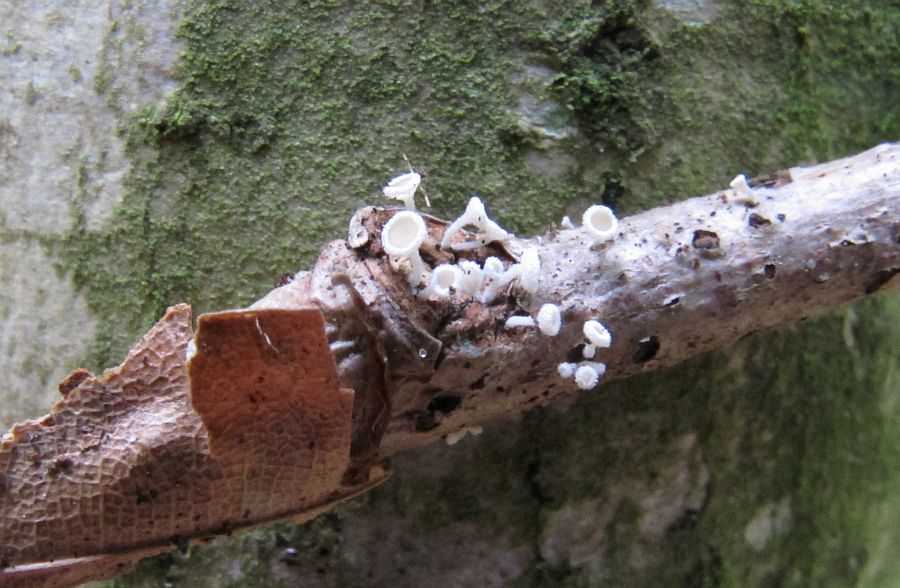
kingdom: Fungi
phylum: Ascomycota
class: Leotiomycetes
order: Helotiales
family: Lachnaceae
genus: Lachnum
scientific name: Lachnum subvirgineum
